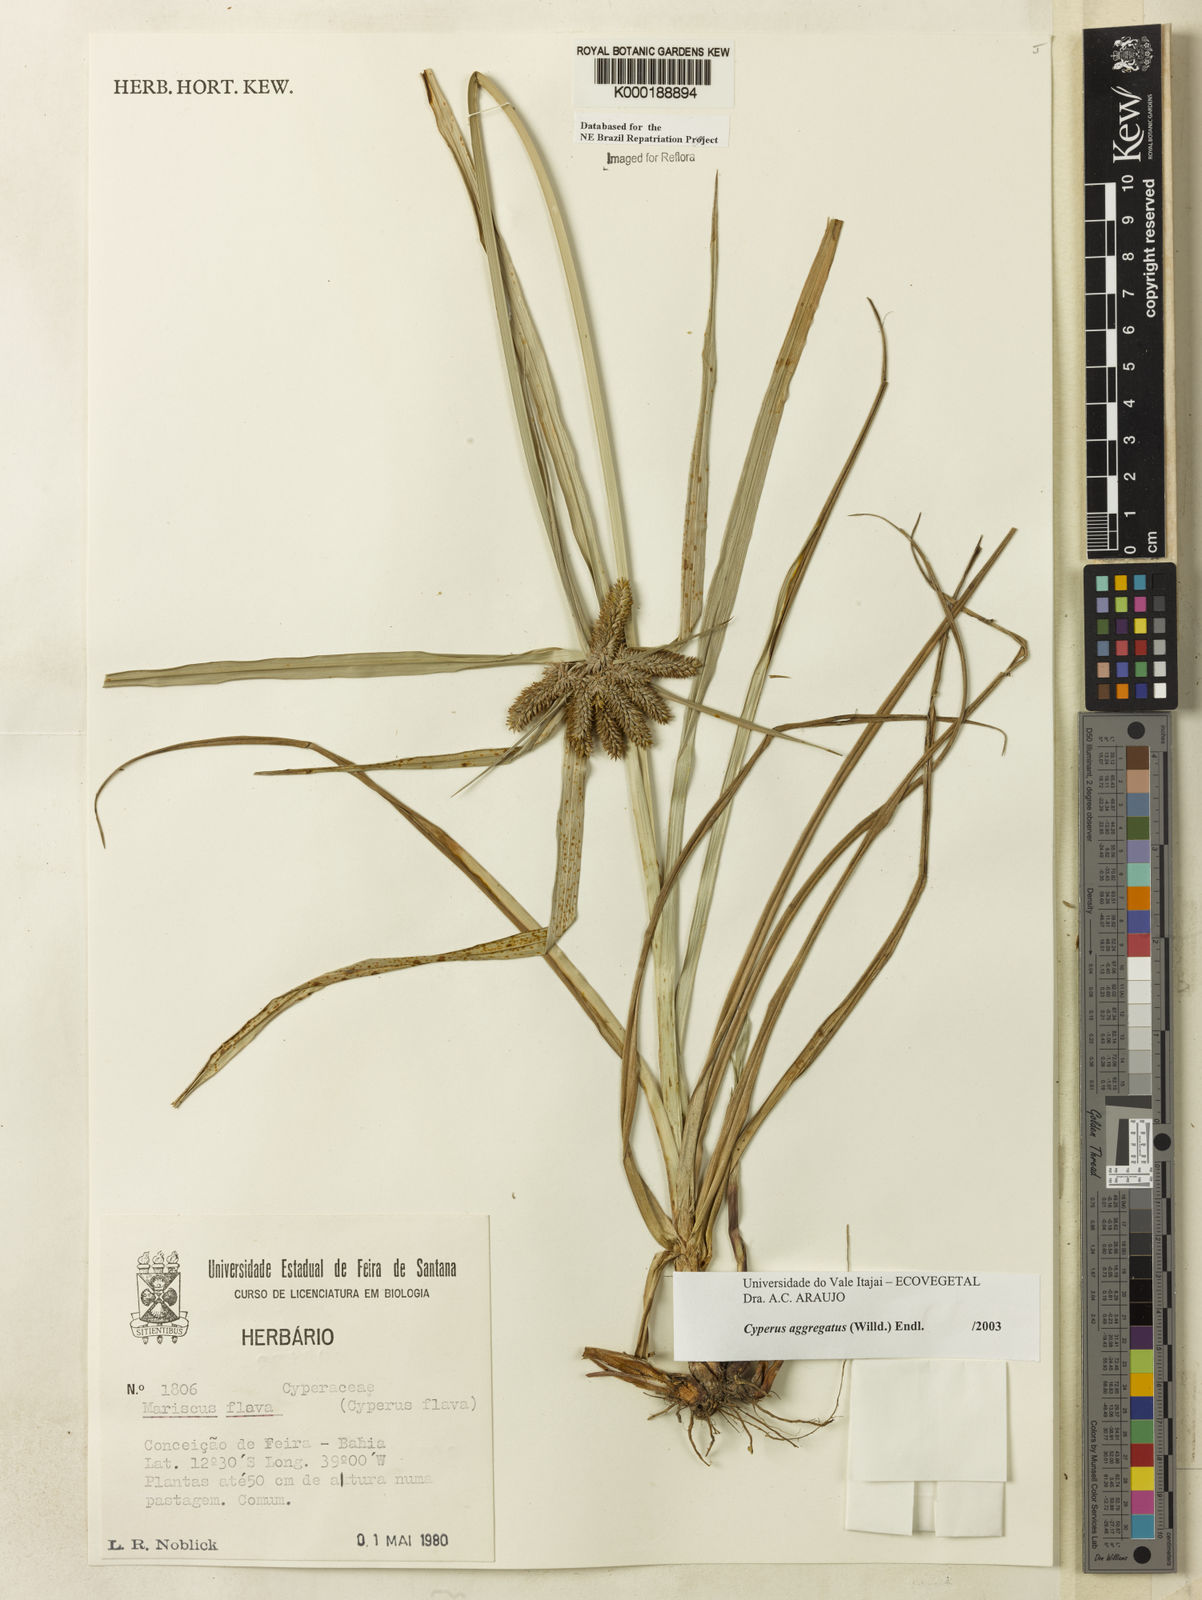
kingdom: Plantae
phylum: Tracheophyta
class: Liliopsida
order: Poales
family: Cyperaceae
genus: Cyperus
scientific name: Cyperus aggregatus
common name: Inflatedscale flatsedge
